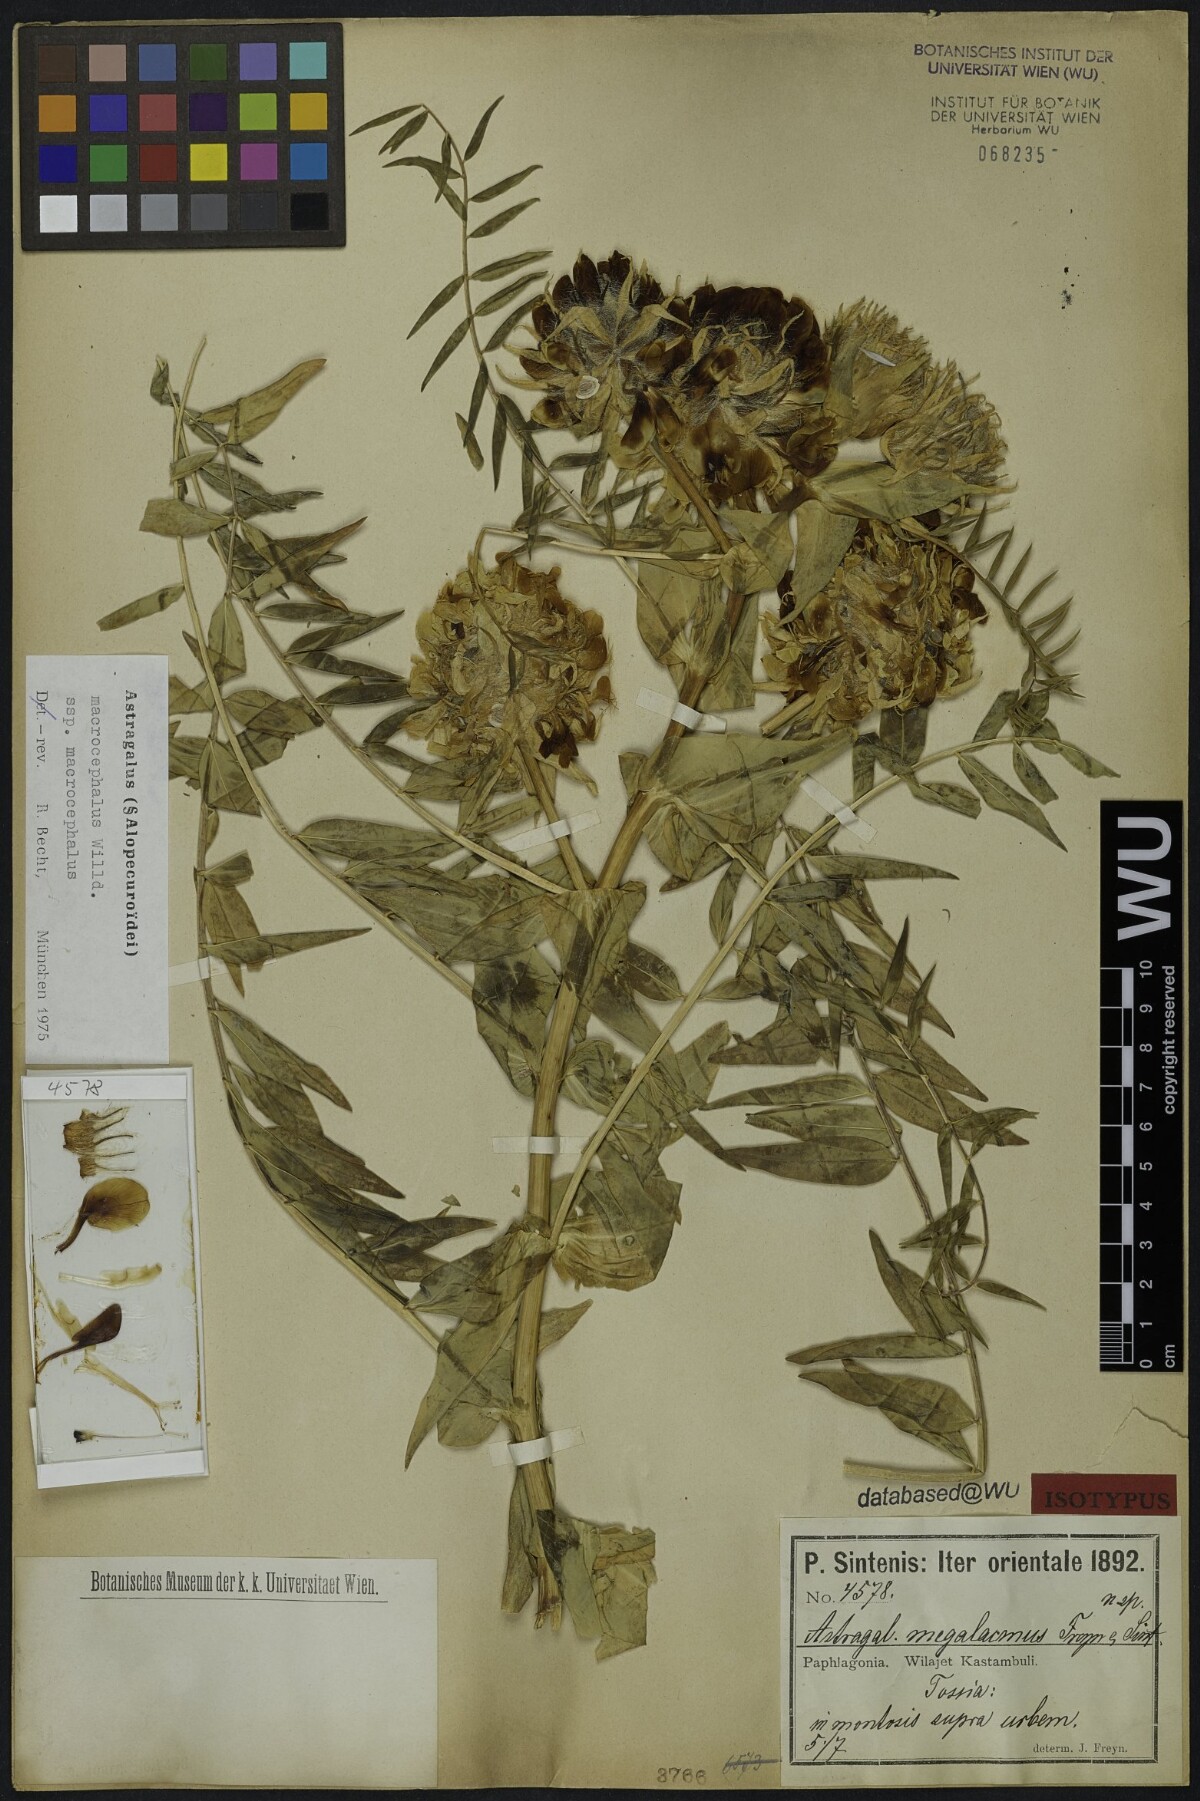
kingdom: Plantae
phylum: Tracheophyta
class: Magnoliopsida
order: Fabales
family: Fabaceae
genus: Astragalus
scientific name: Astragalus macrocephalus
